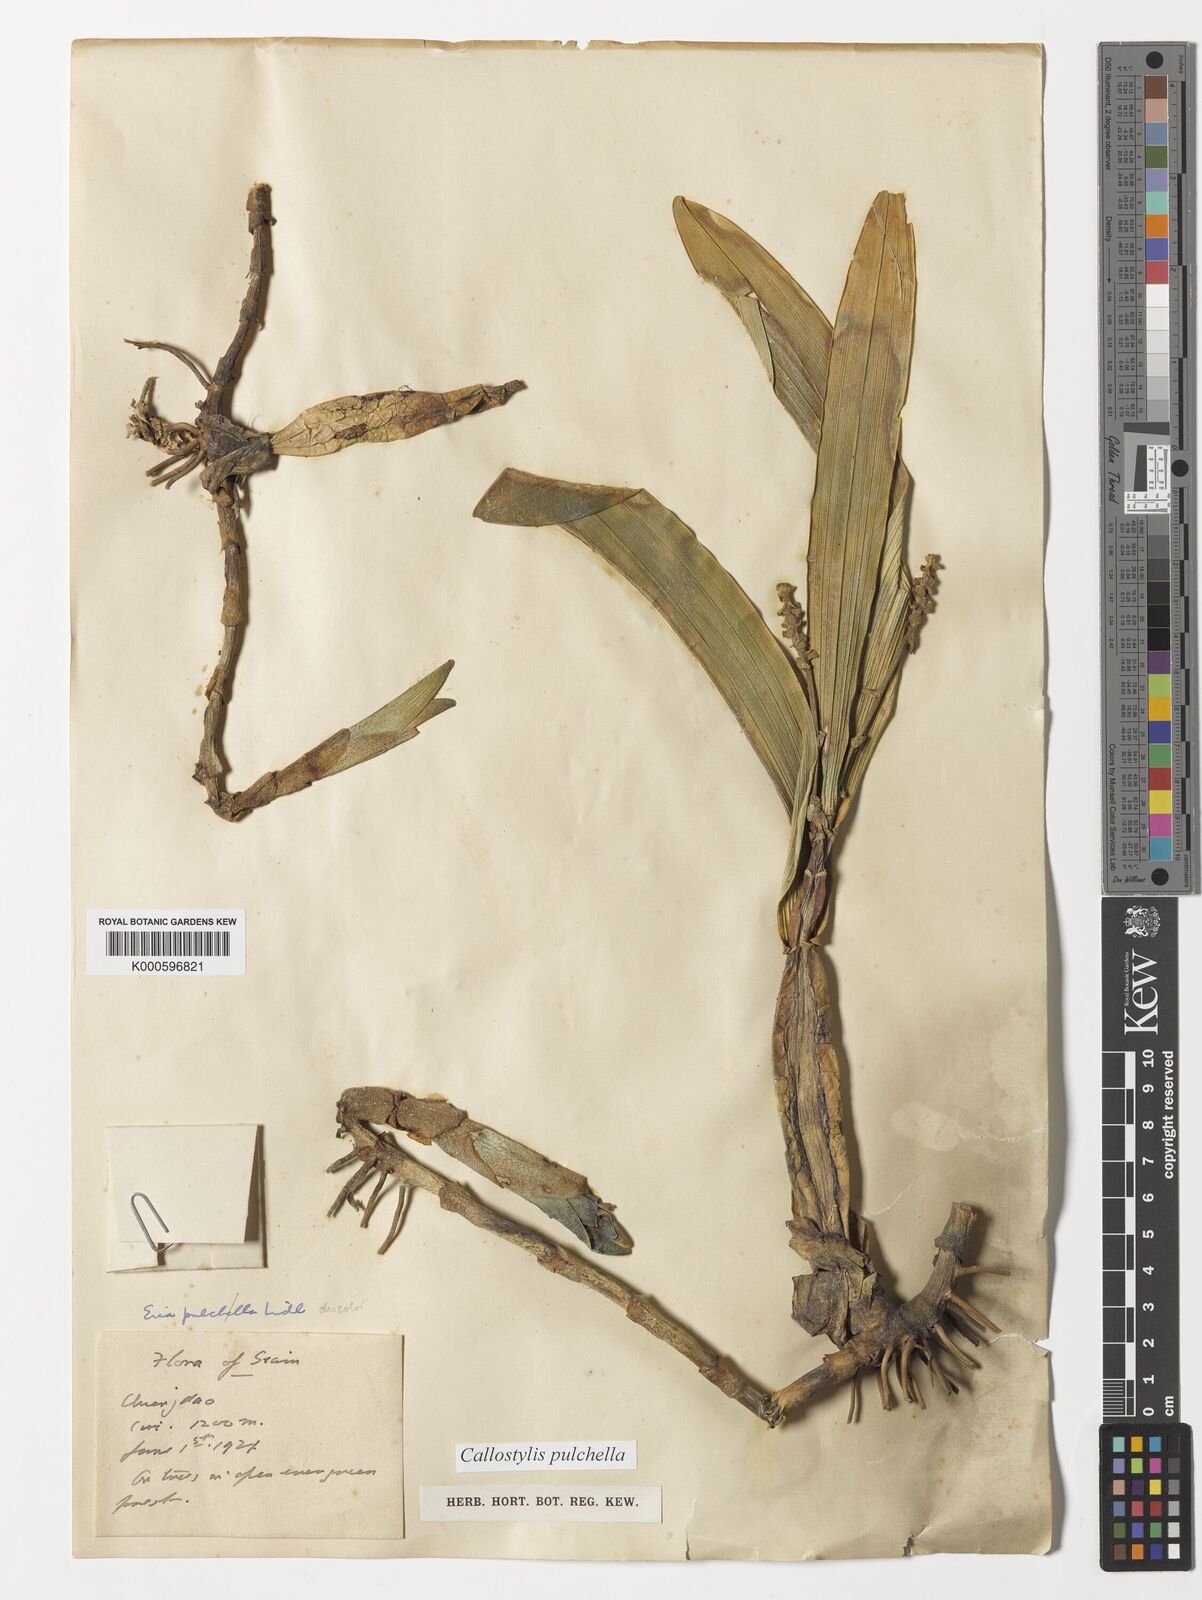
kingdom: Plantae
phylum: Tracheophyta
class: Liliopsida
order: Asparagales
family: Orchidaceae
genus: Callostylis
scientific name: Callostylis pulchella
